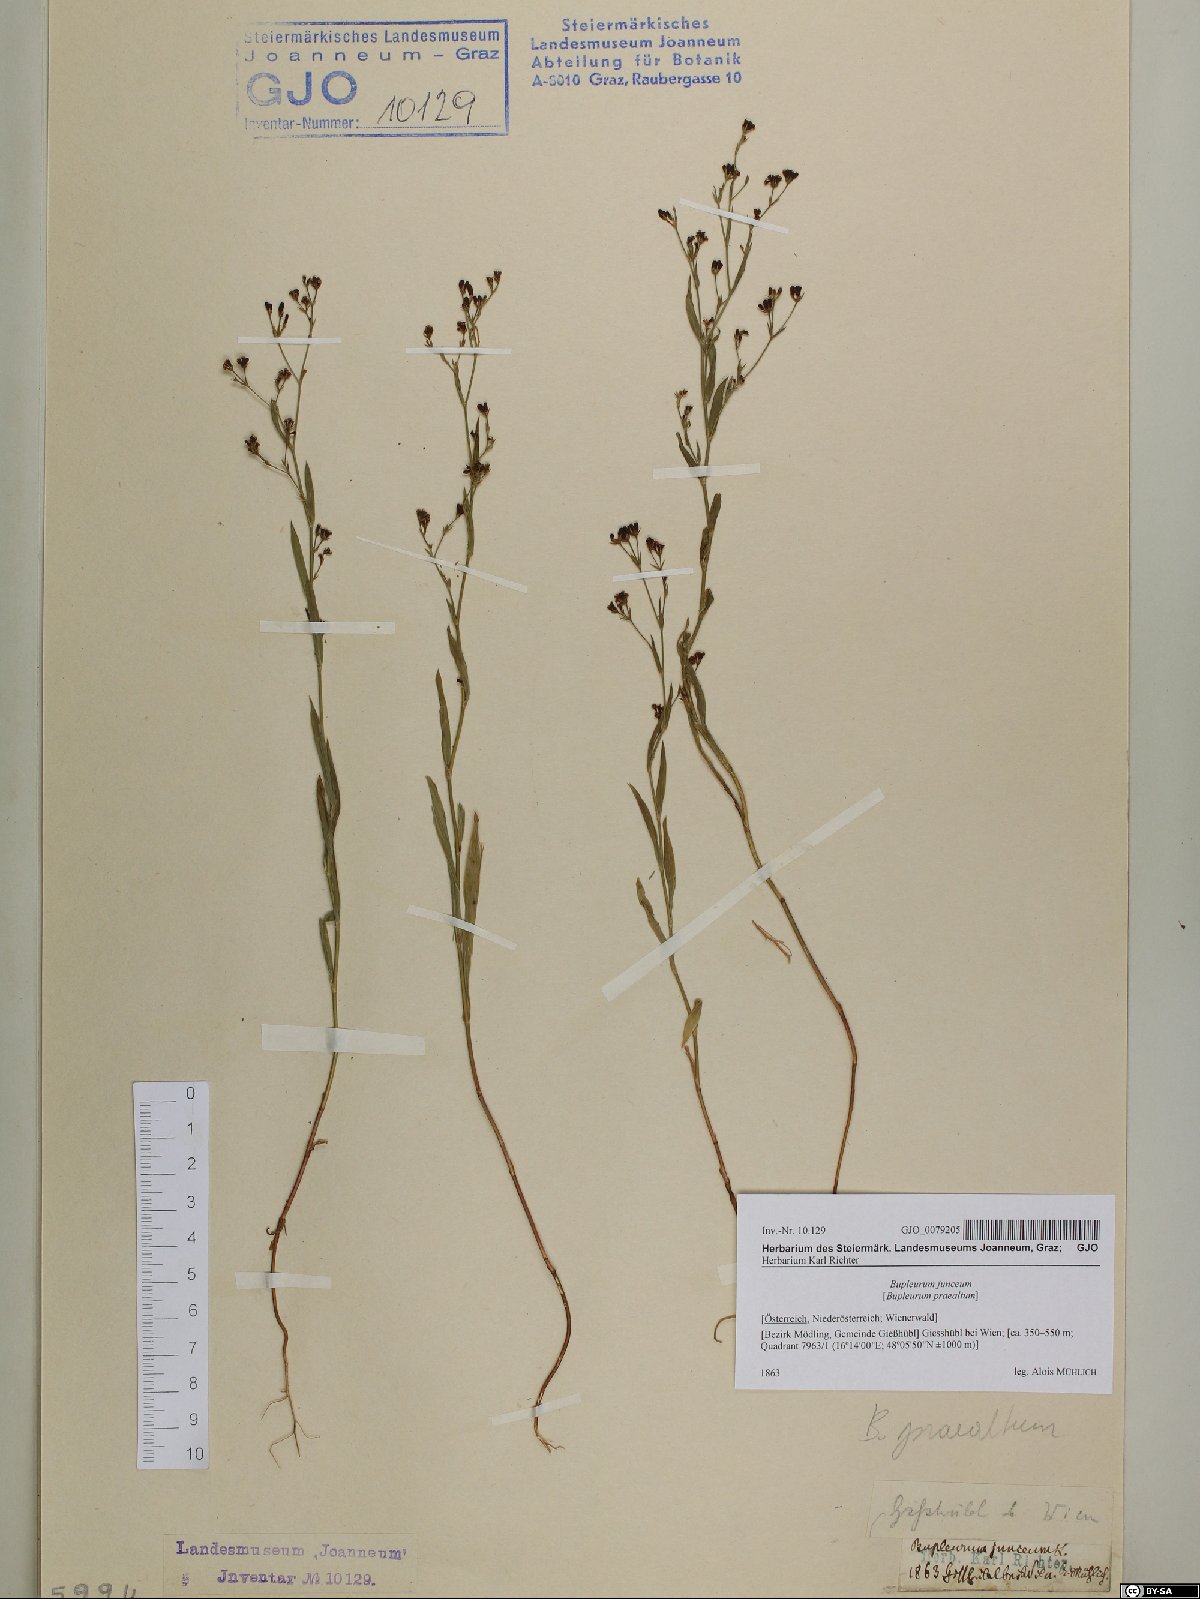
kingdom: Plantae
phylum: Tracheophyta
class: Magnoliopsida
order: Apiales
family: Apiaceae
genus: Bupleurum
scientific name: Bupleurum praealtum
